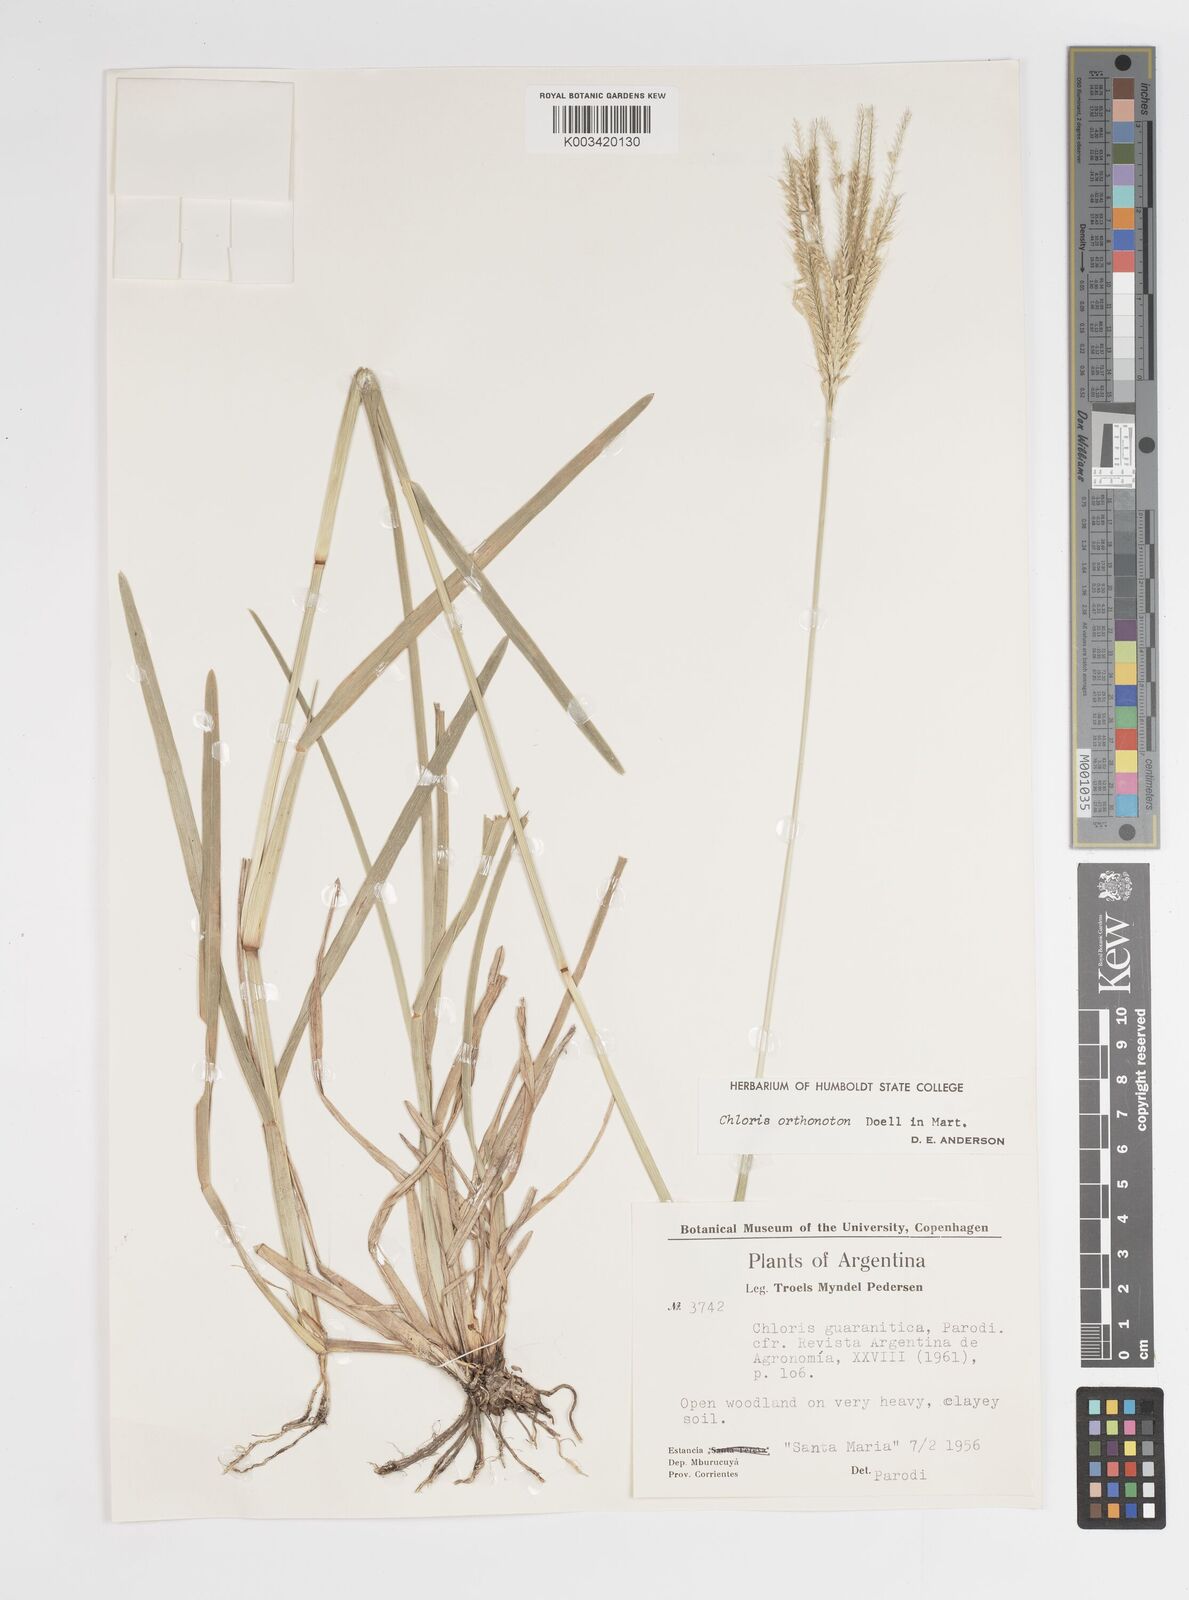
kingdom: Plantae
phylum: Tracheophyta
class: Liliopsida
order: Poales
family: Poaceae
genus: Chloris
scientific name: Chloris orthonoton
